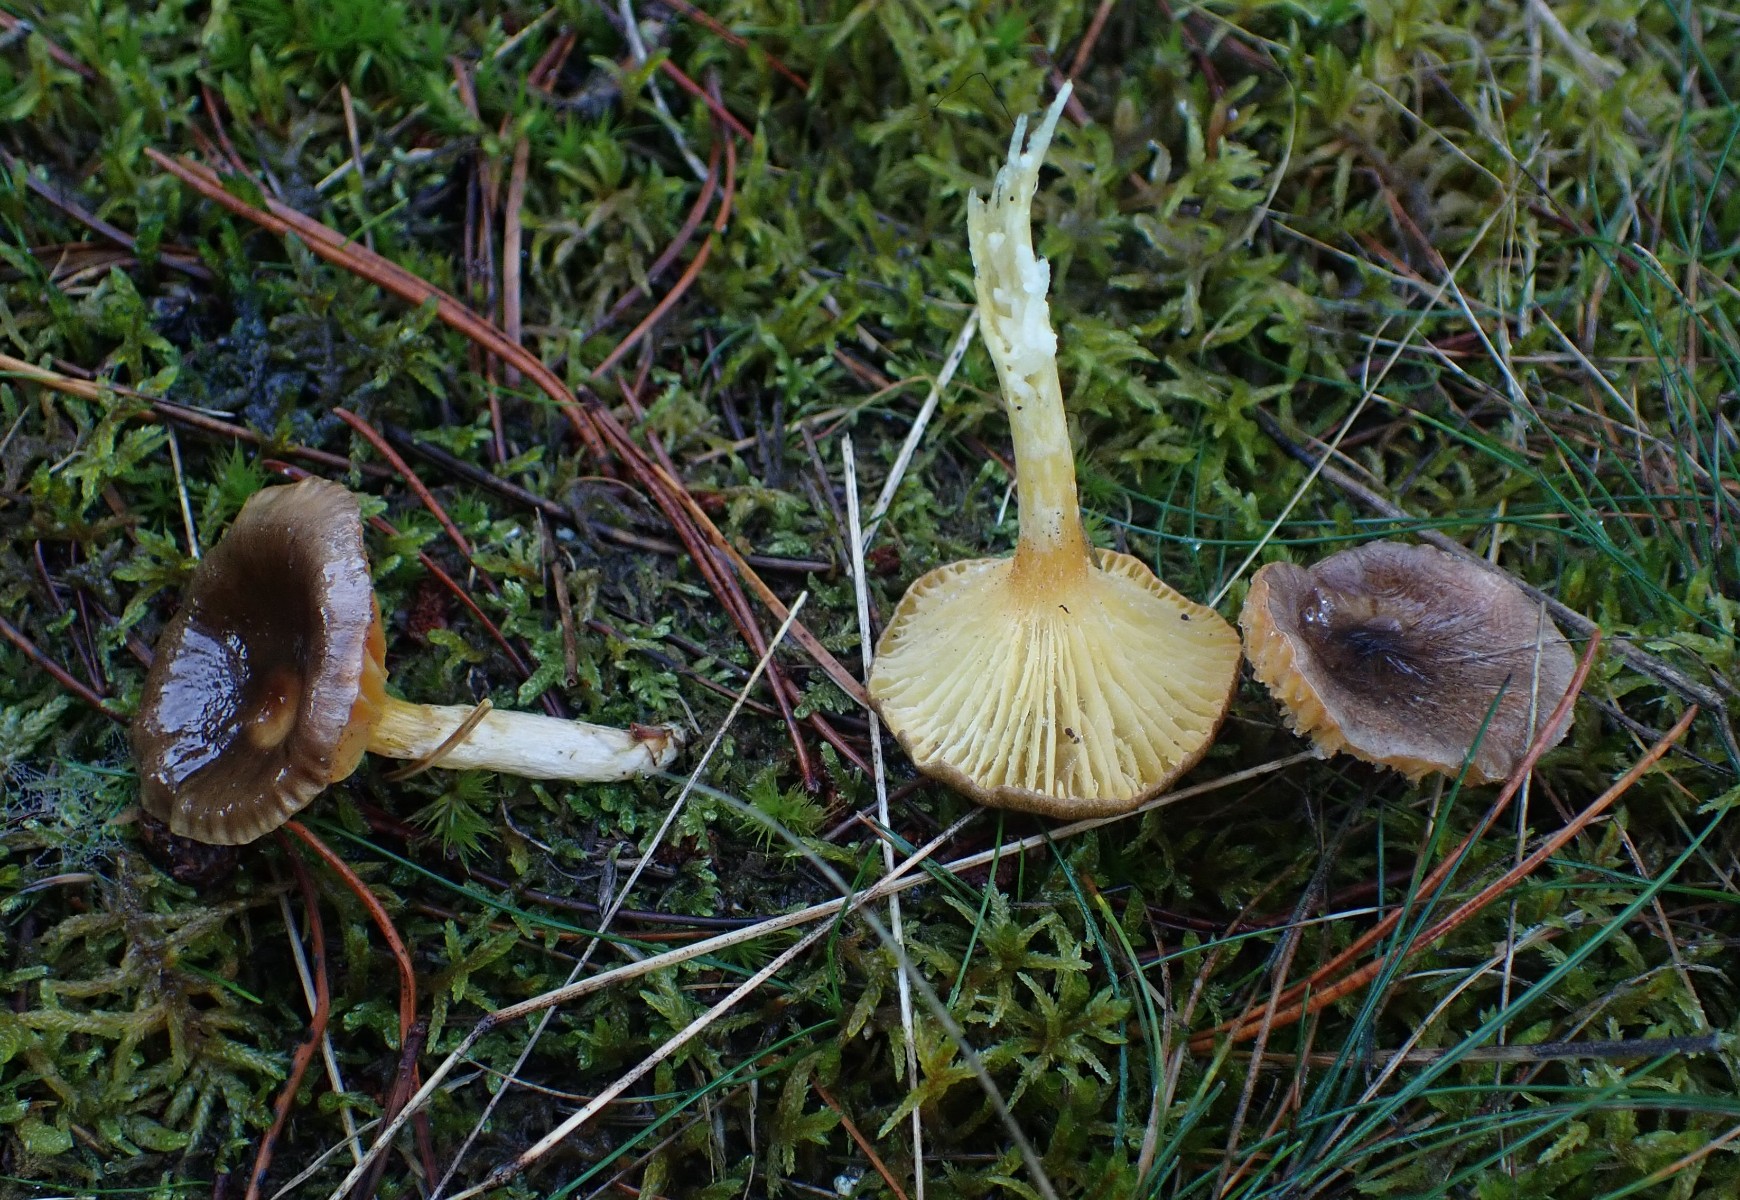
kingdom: Fungi
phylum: Basidiomycota
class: Agaricomycetes
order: Agaricales
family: Hygrophoraceae
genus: Hygrophorus
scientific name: Hygrophorus hypothejus
